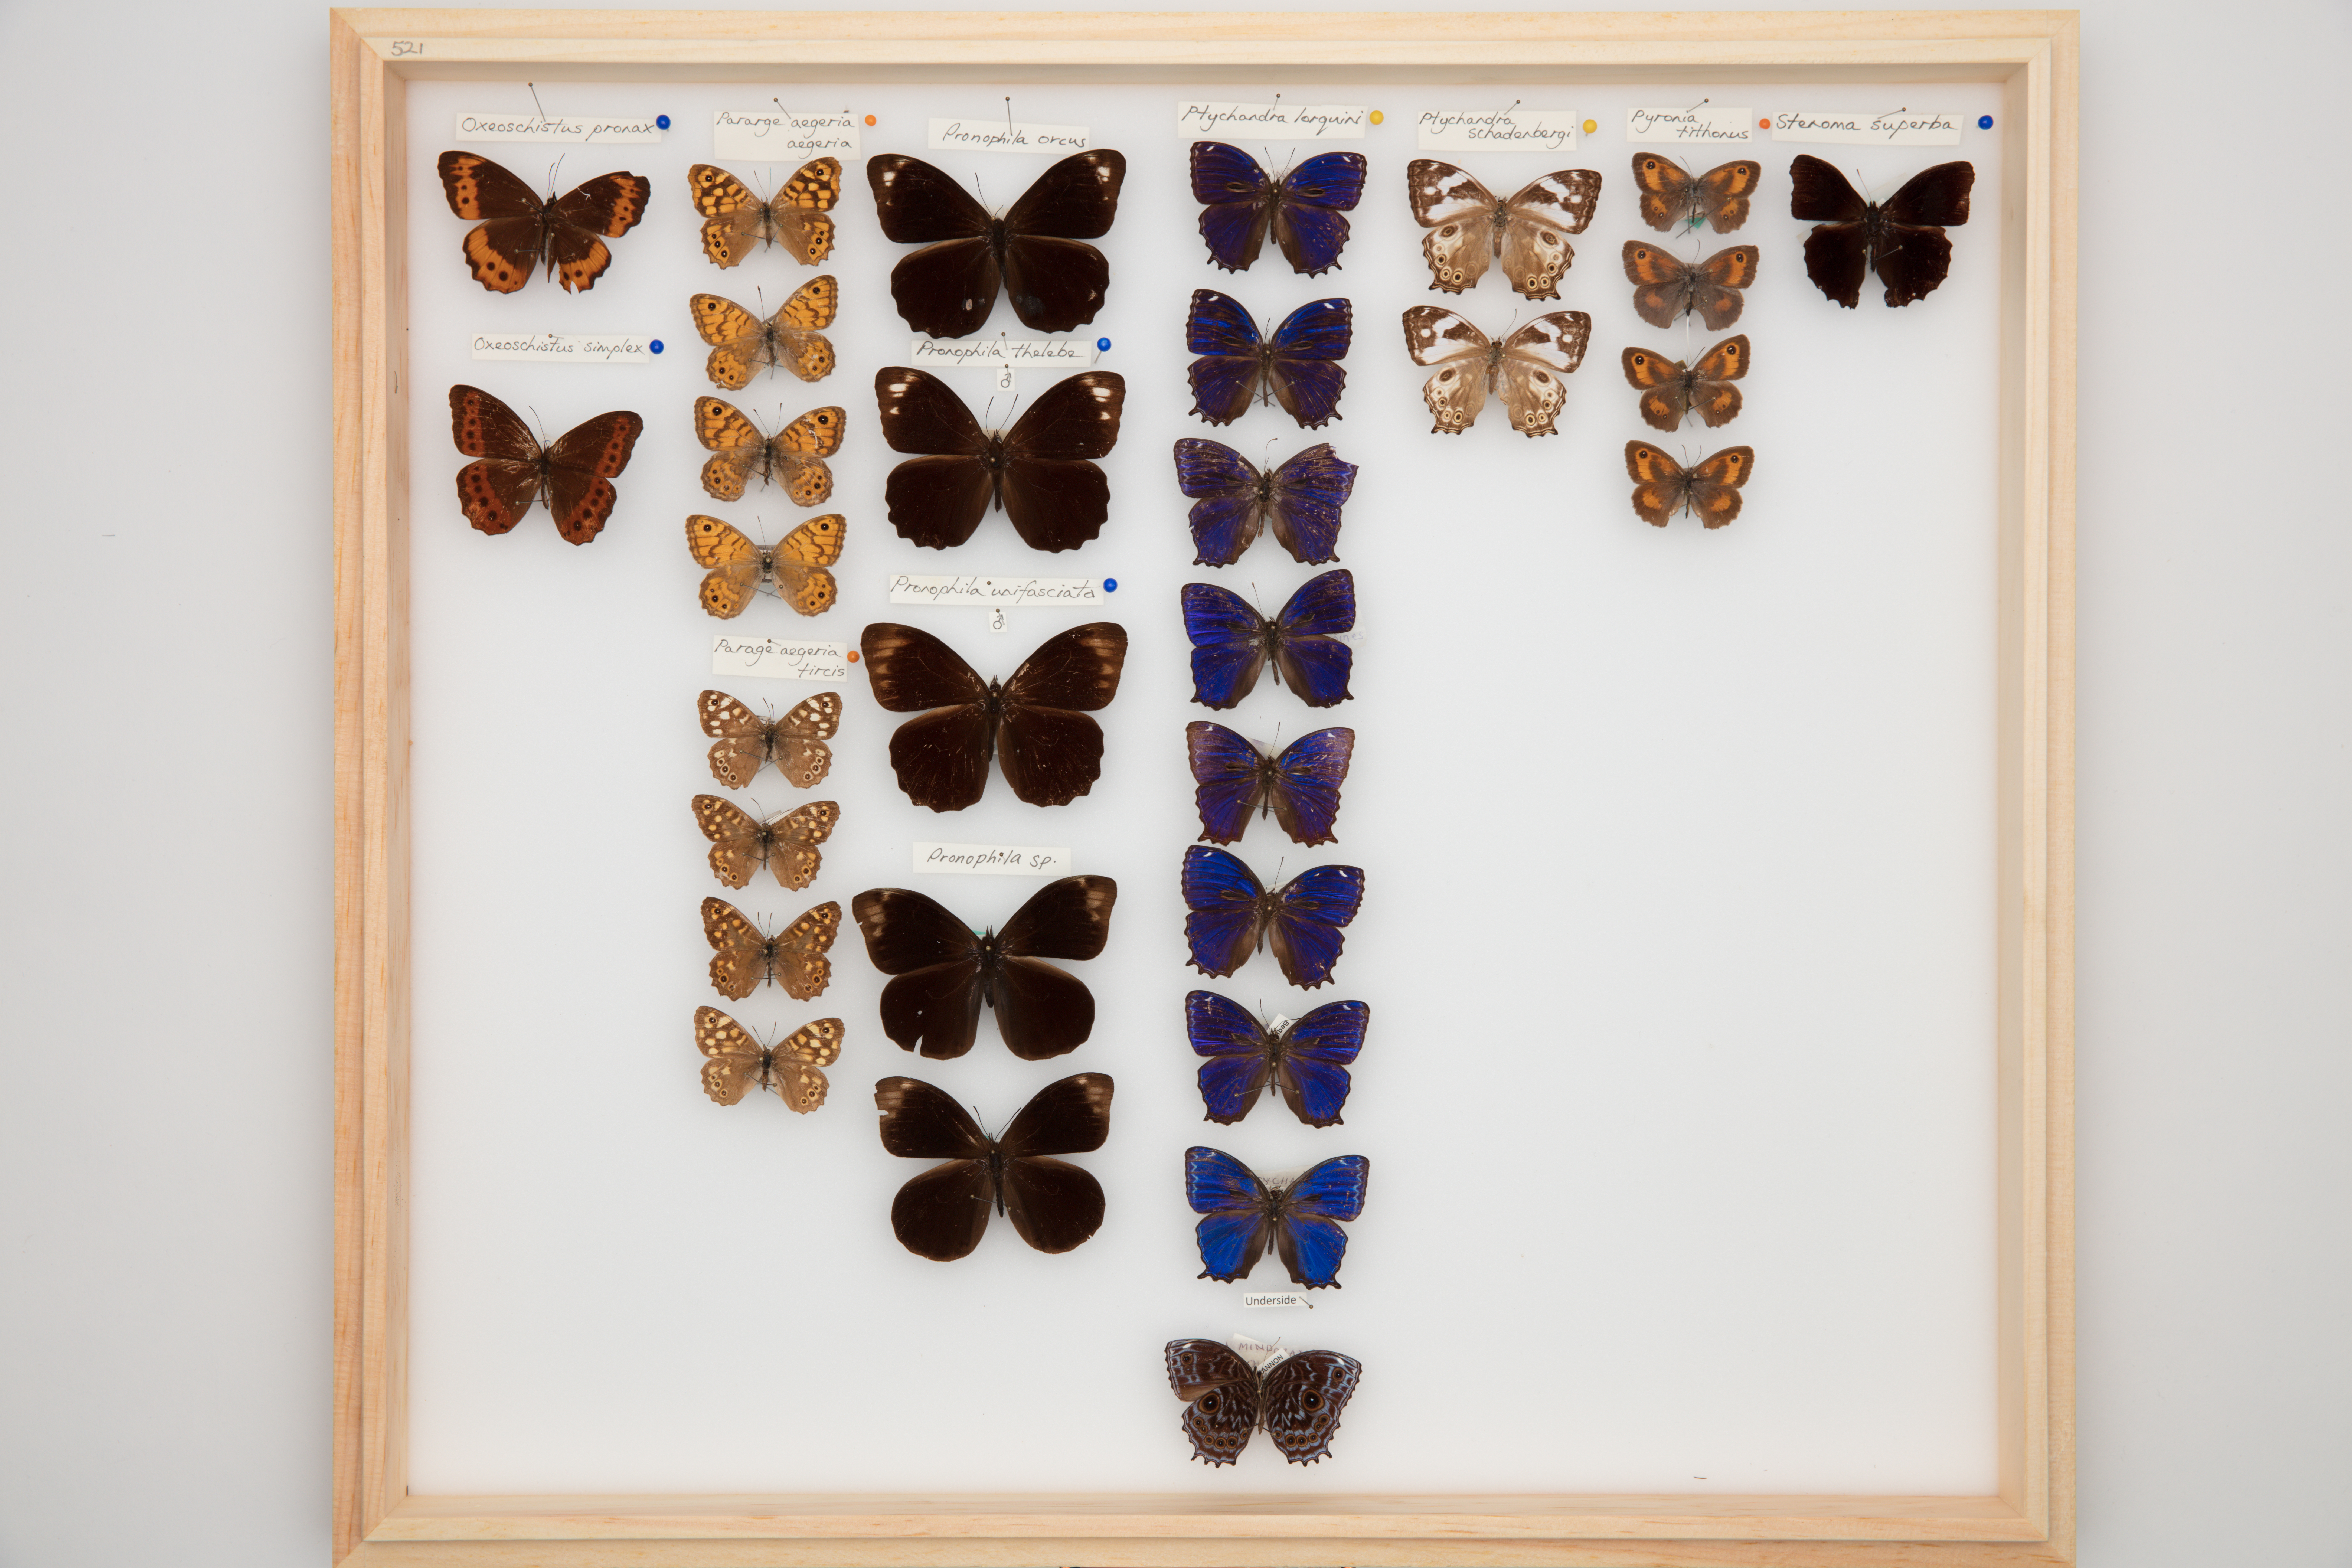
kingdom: Animalia
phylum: Arthropoda
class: Insecta
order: Lepidoptera
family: Nymphalidae
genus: Pronophila
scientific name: Pronophila thelebe
